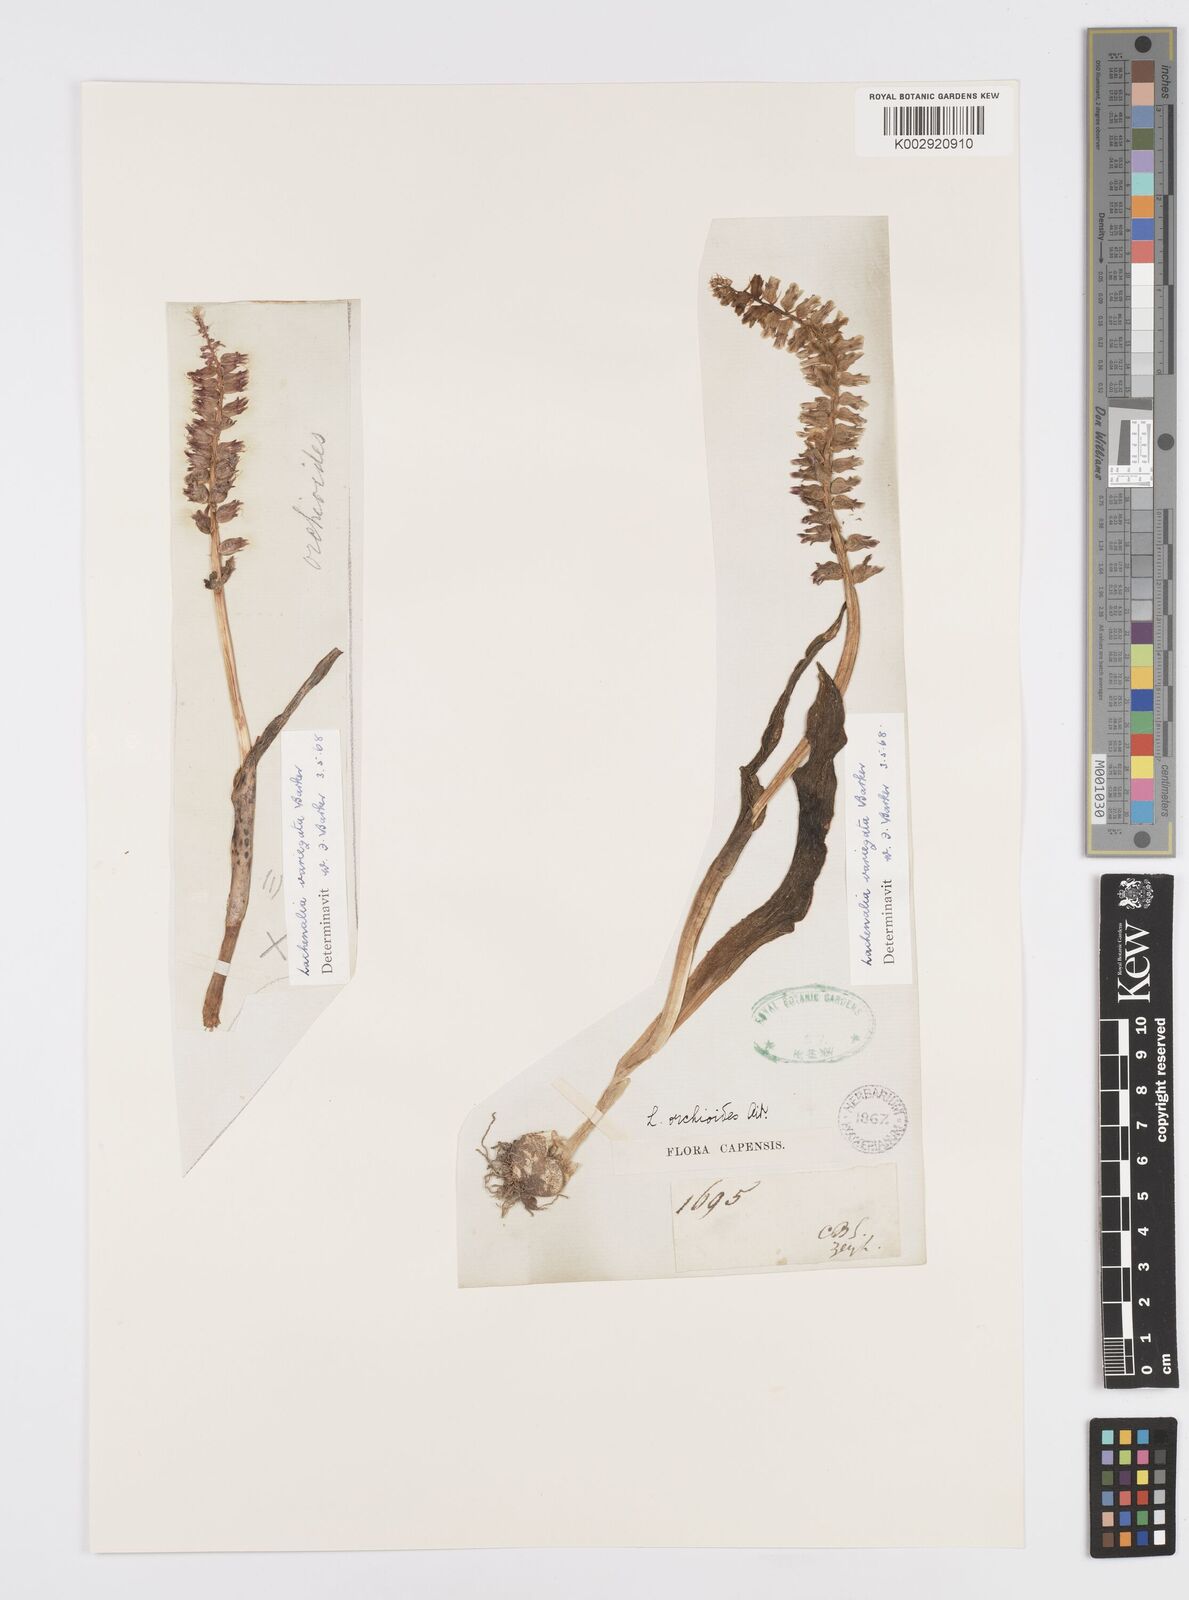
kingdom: Plantae
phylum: Tracheophyta
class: Liliopsida
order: Asparagales
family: Asparagaceae
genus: Lachenalia
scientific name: Lachenalia variegata
